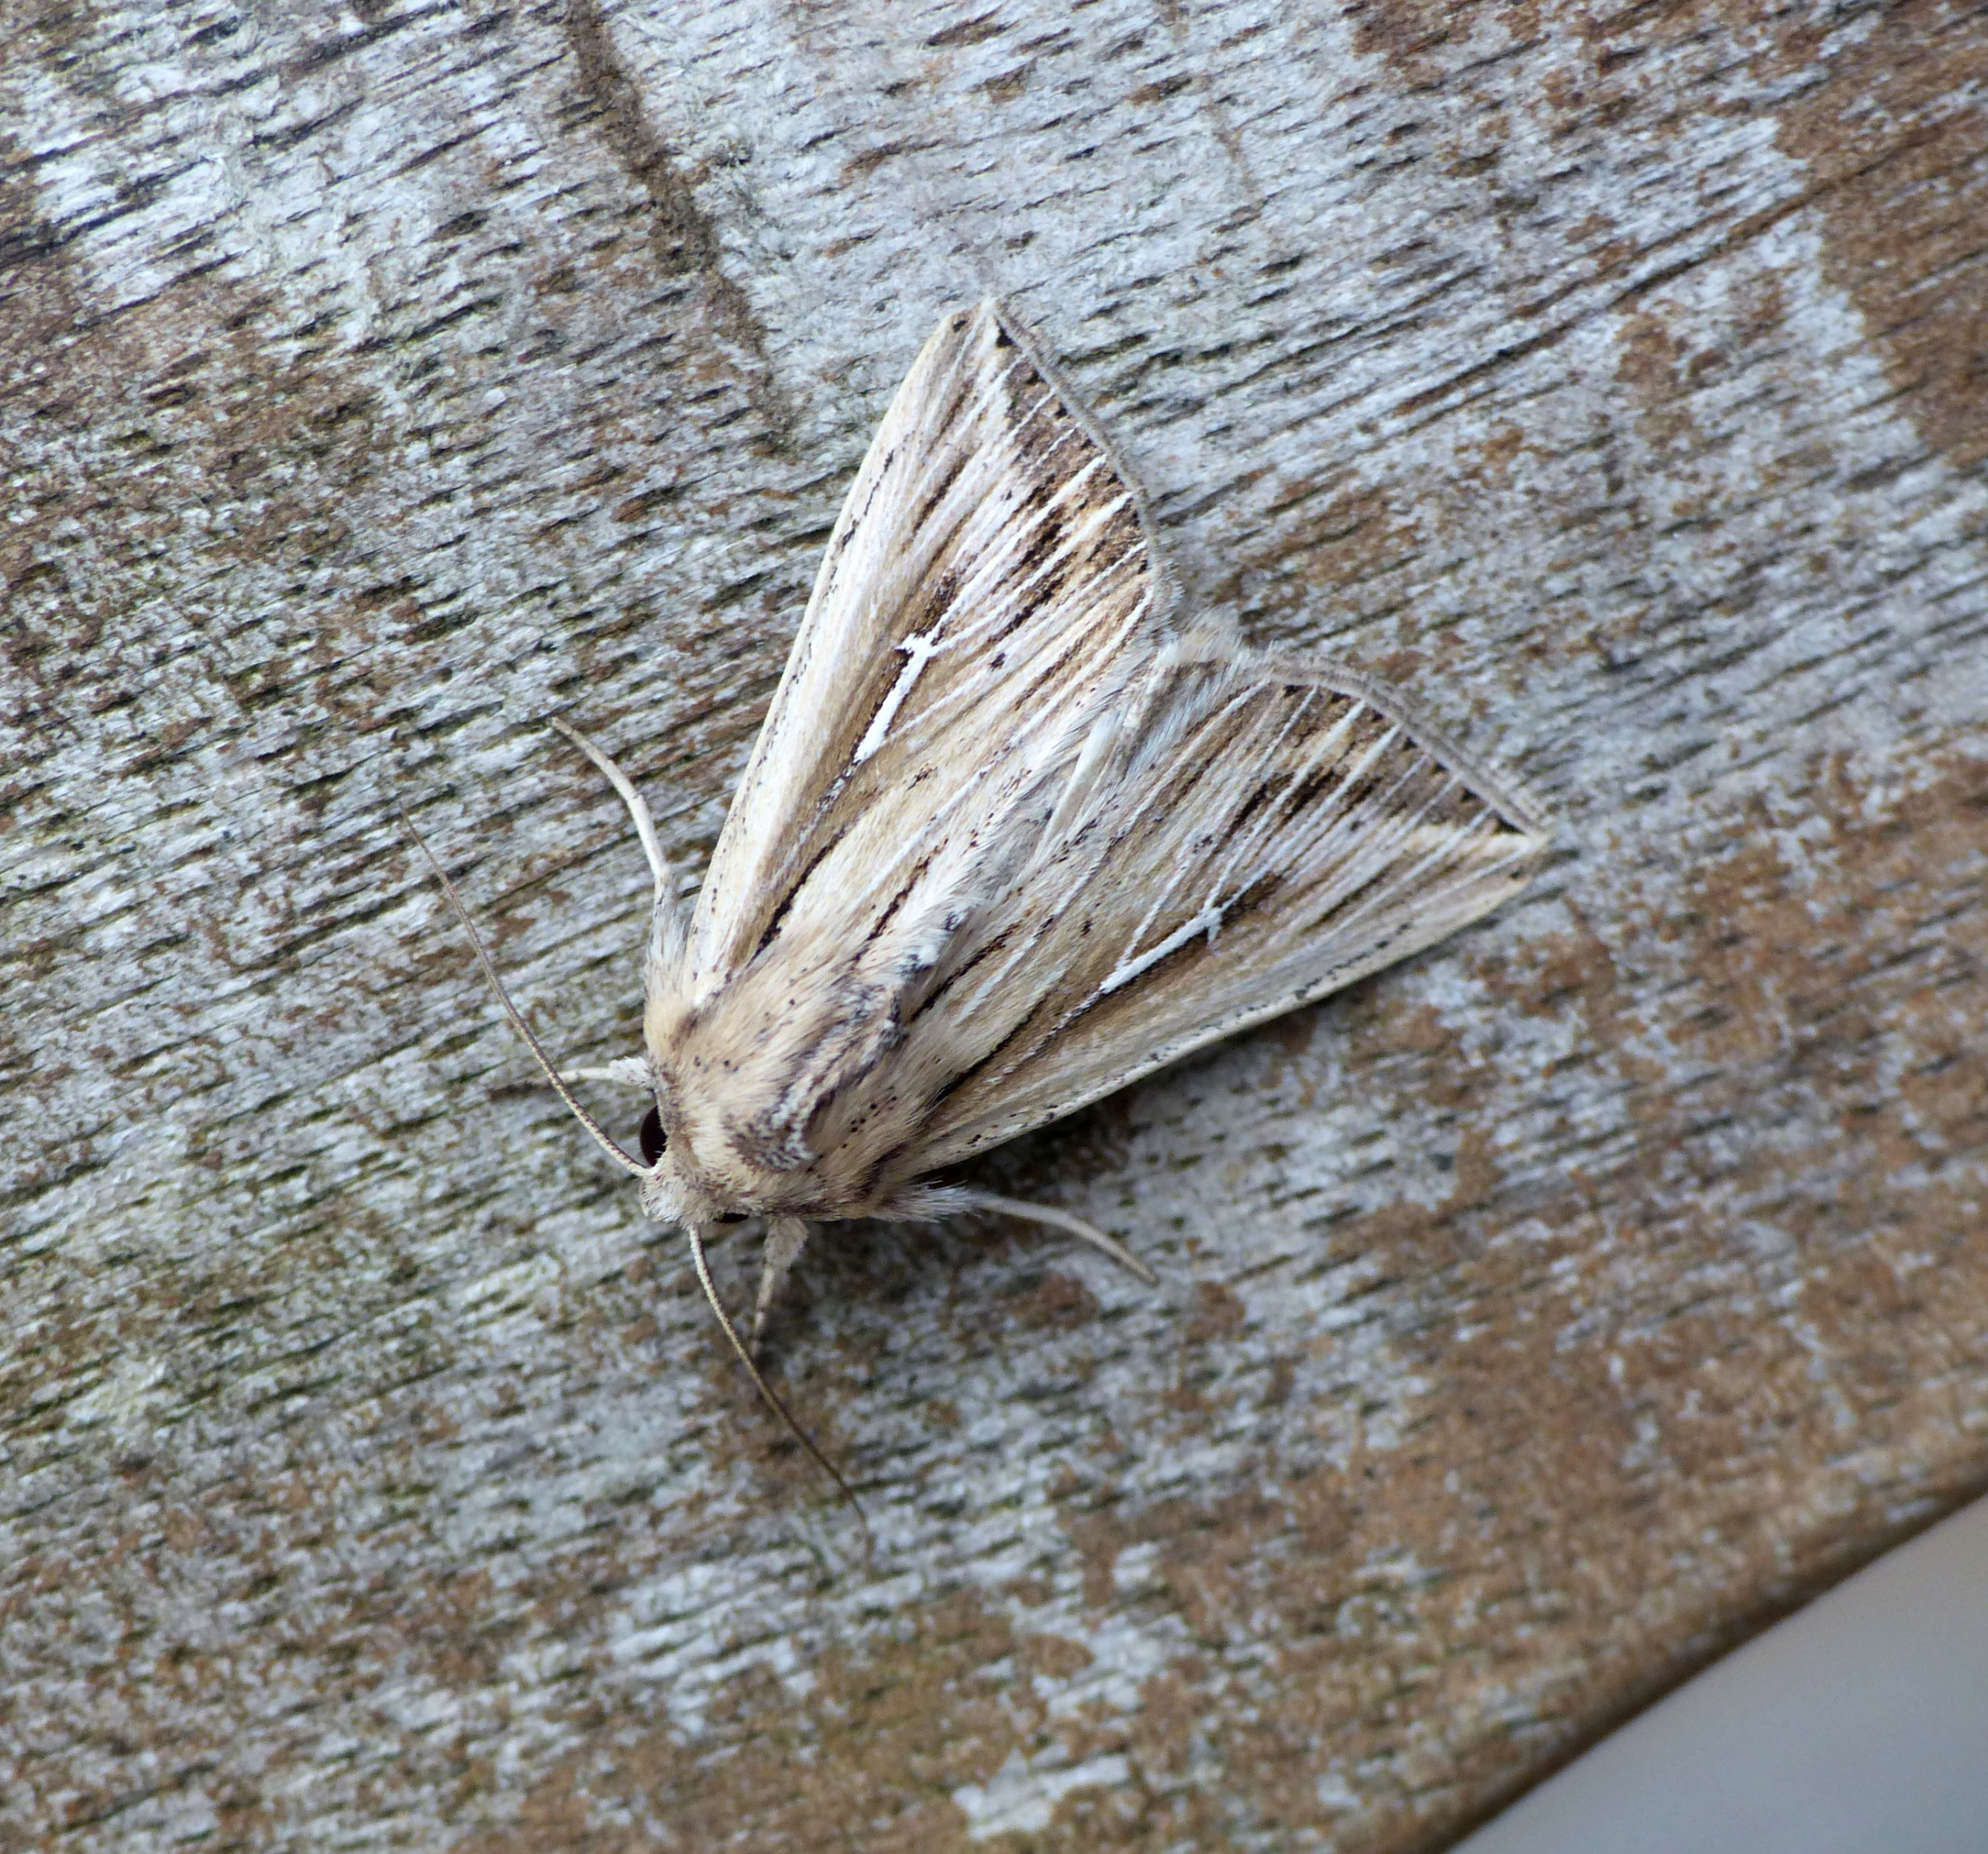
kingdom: Animalia
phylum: Arthropoda
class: Insecta
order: Lepidoptera
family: Noctuidae
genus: Mythimna
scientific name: Mythimna l-album
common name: Det store L
